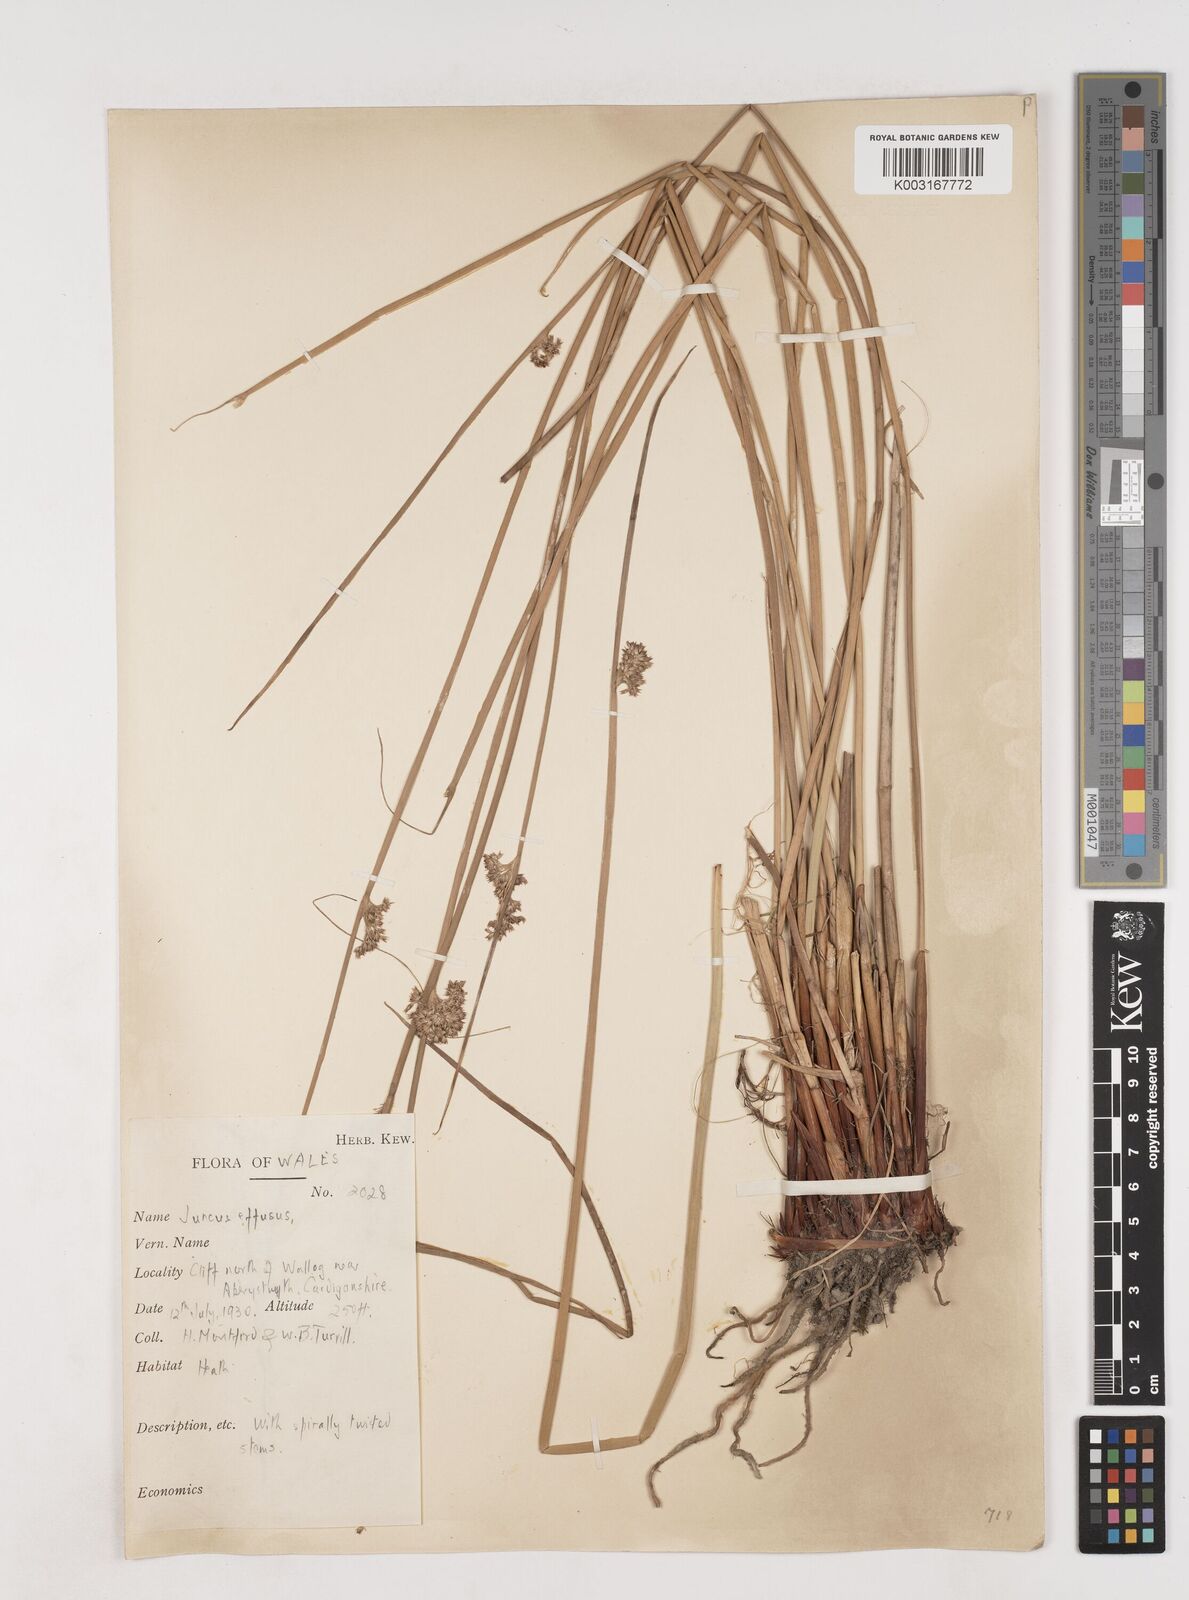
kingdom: Plantae
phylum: Tracheophyta
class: Liliopsida
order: Poales
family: Juncaceae
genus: Juncus
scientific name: Juncus effusus
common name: Soft rush
